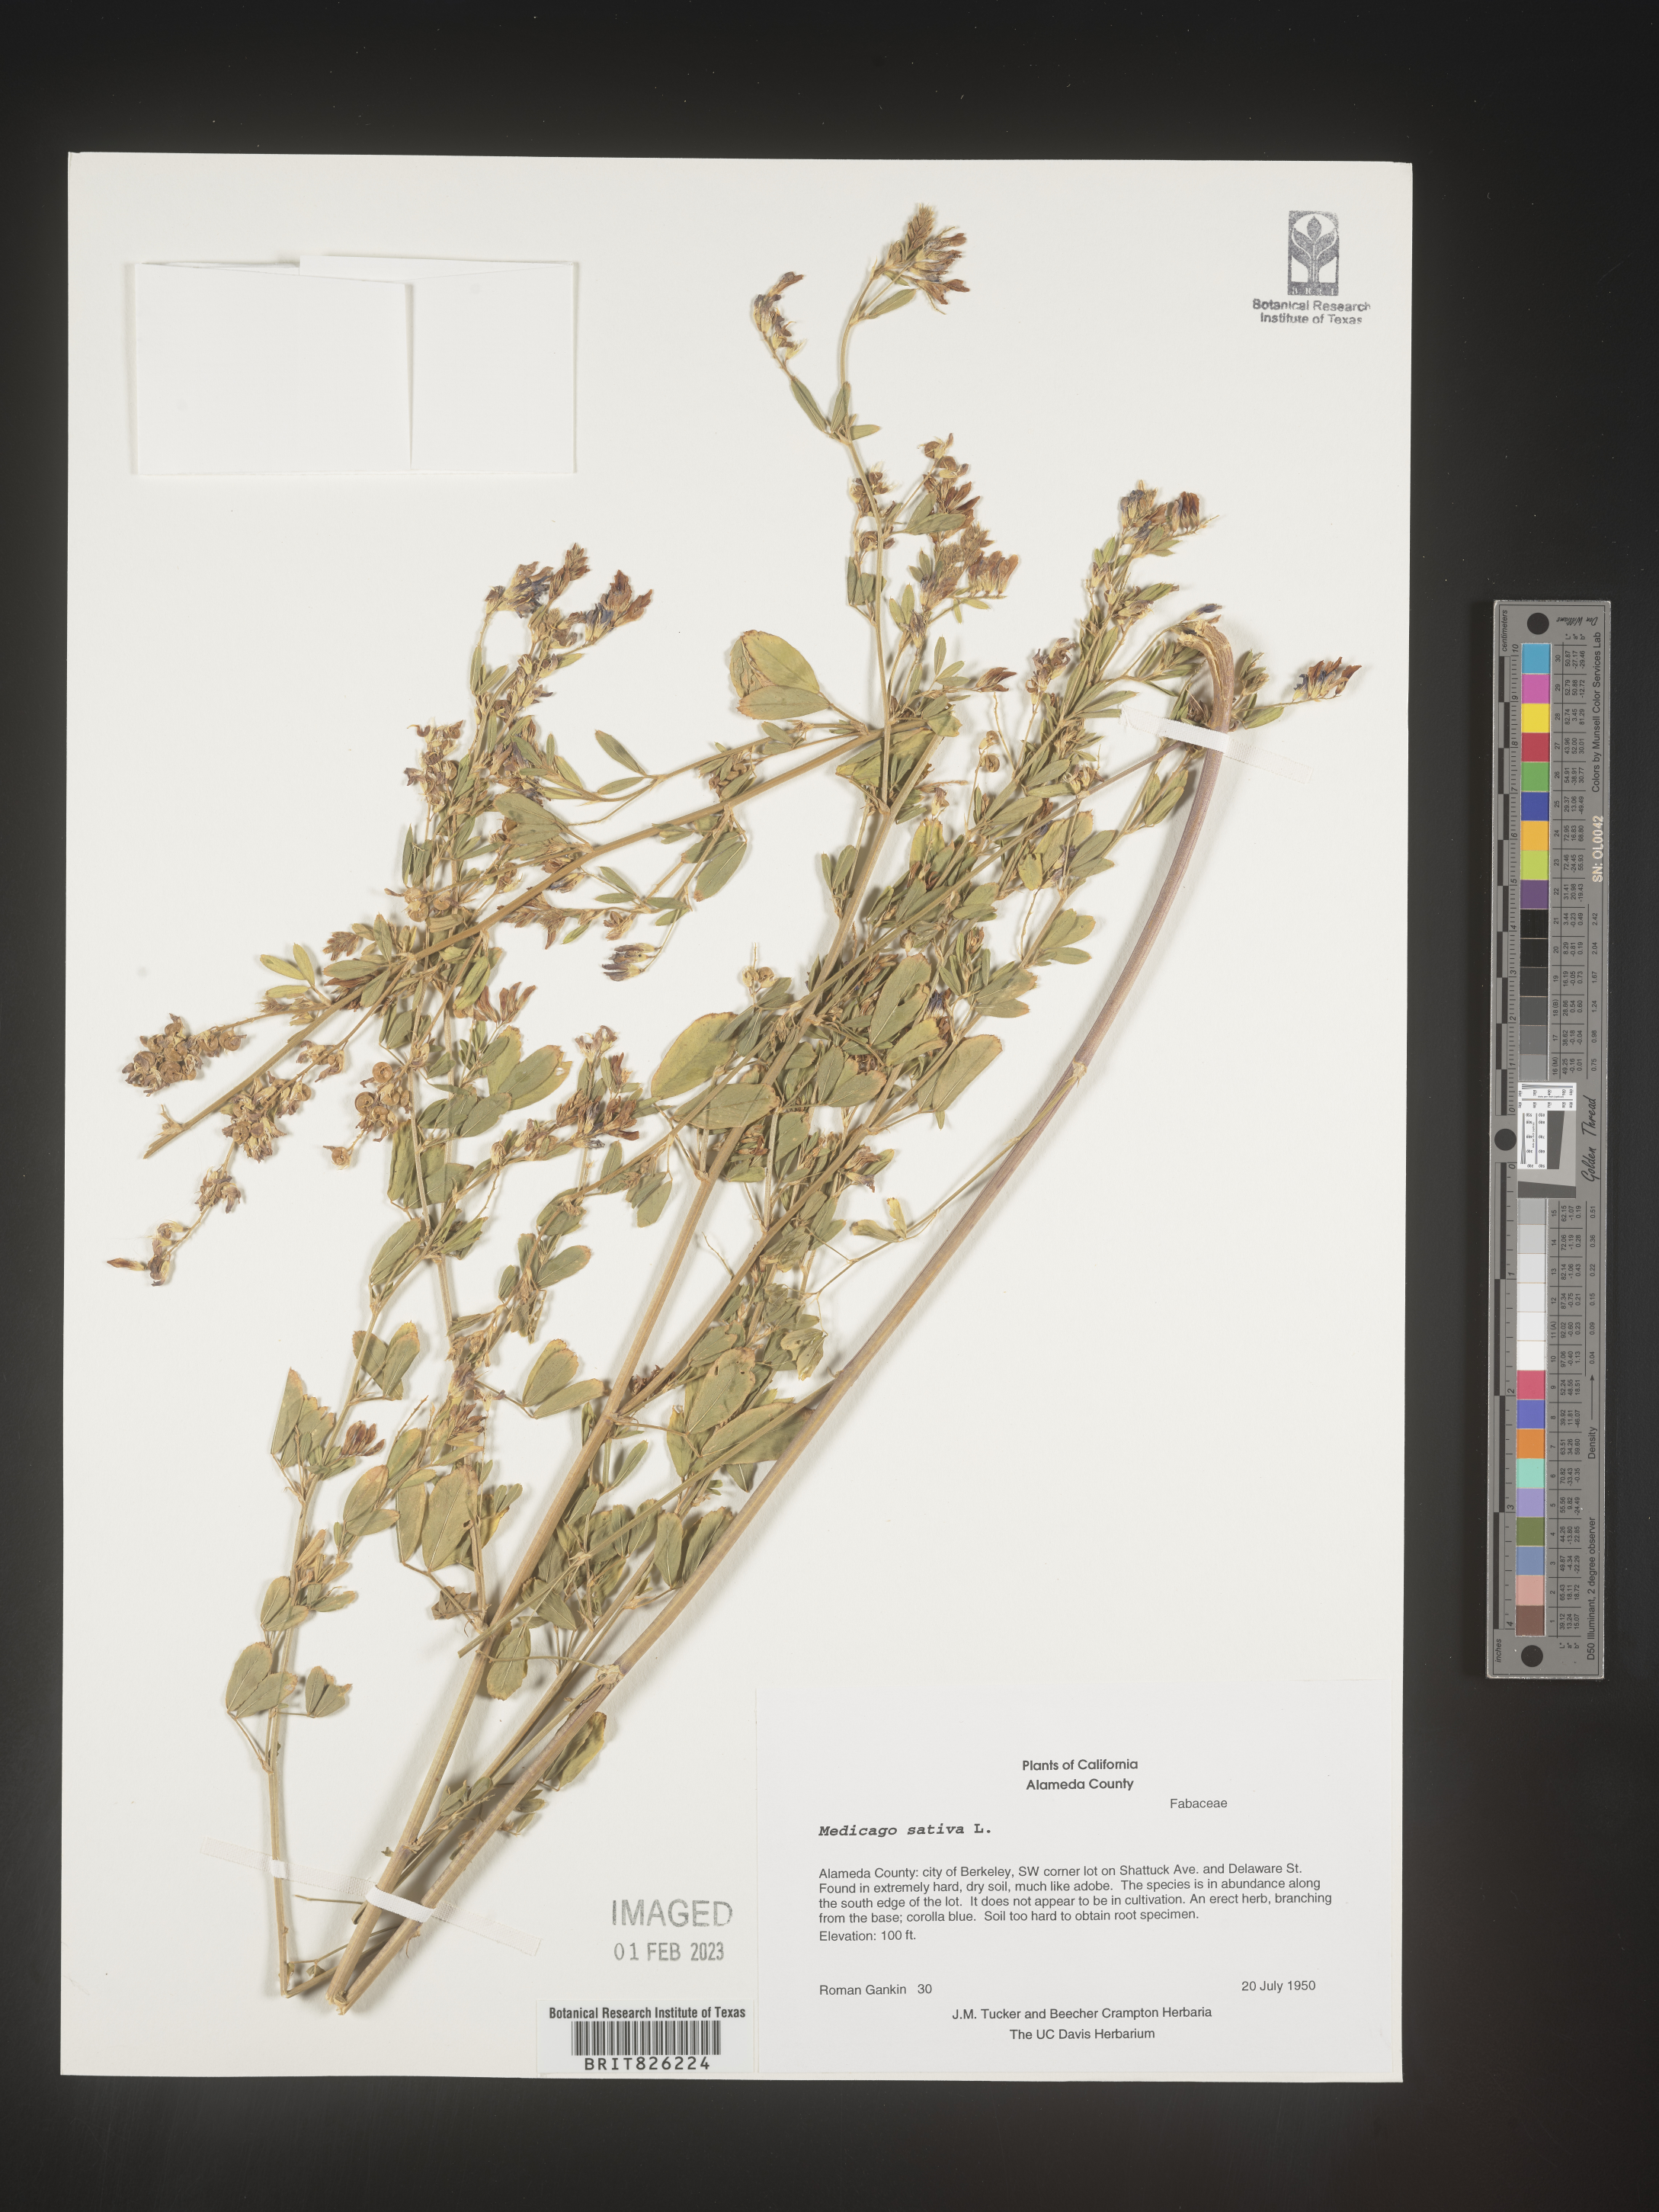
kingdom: Plantae
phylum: Tracheophyta
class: Magnoliopsida
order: Fabales
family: Fabaceae
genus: Medicago
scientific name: Medicago sativa
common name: Alfalfa
